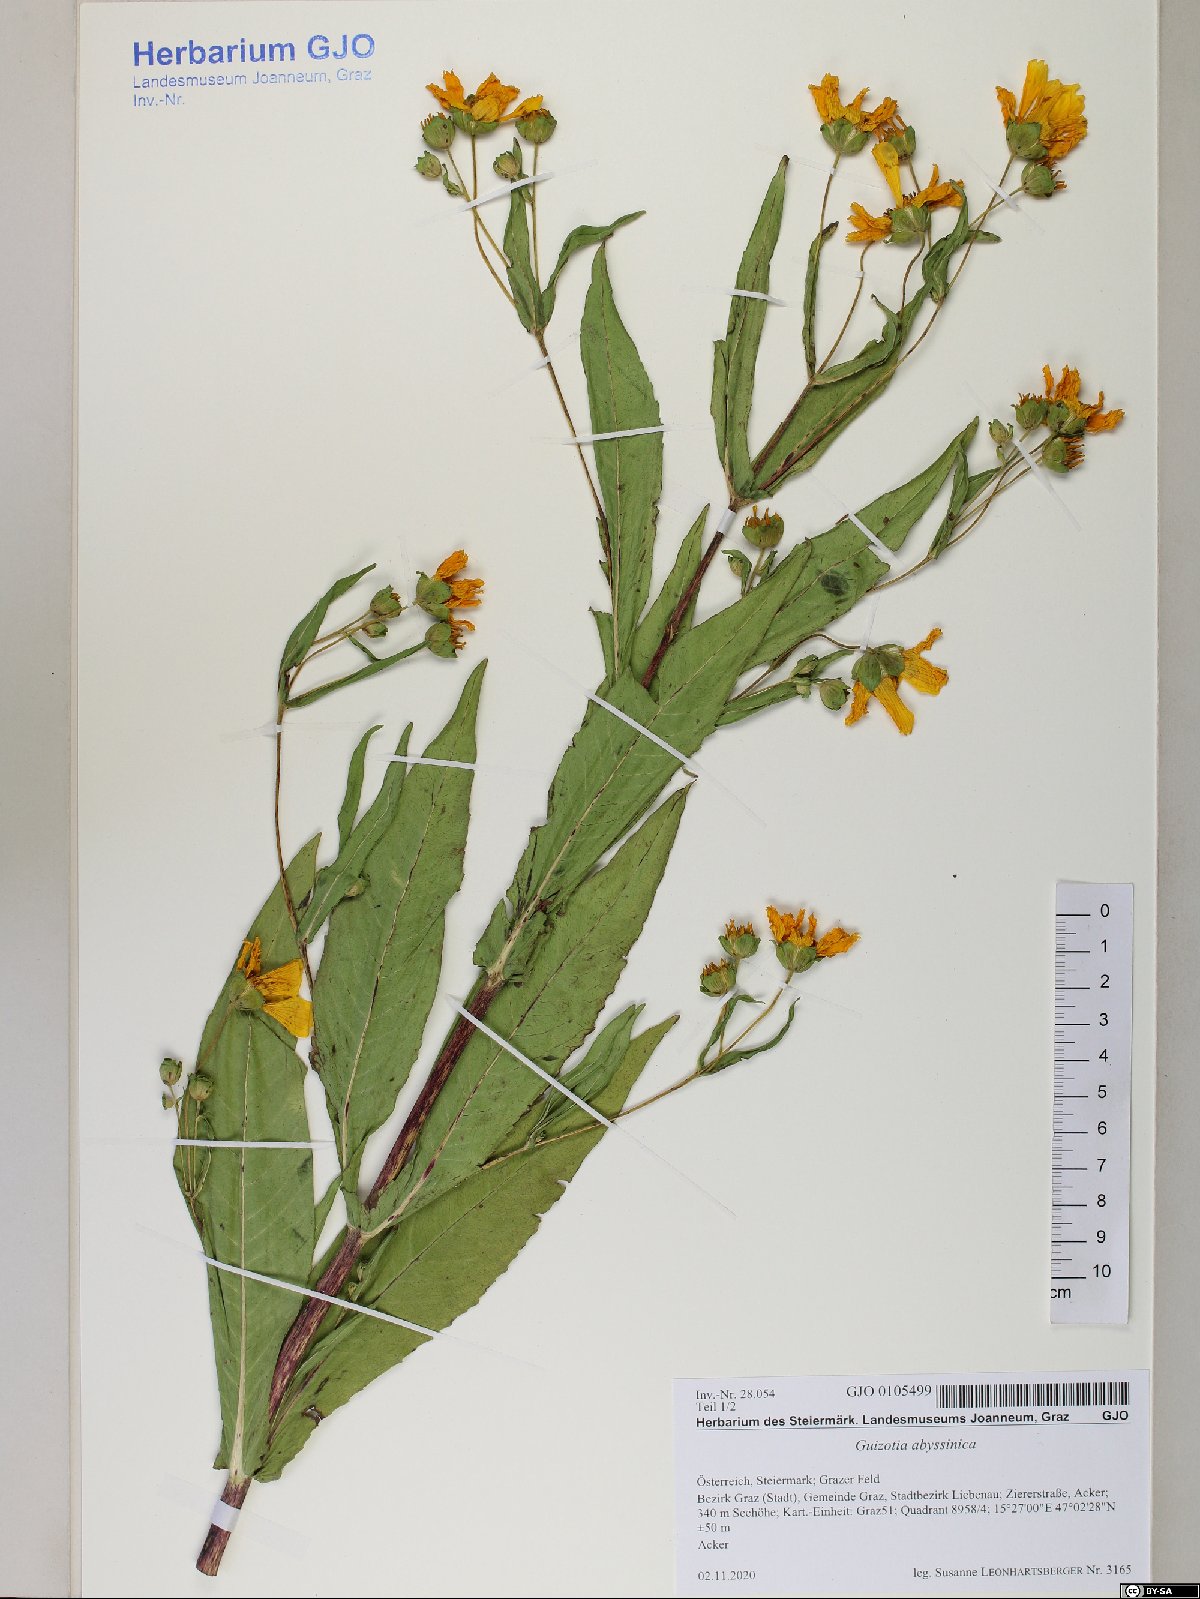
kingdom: Plantae
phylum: Tracheophyta
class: Magnoliopsida
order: Asterales
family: Asteraceae
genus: Guizotia
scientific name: Guizotia abyssinica
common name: Niger
